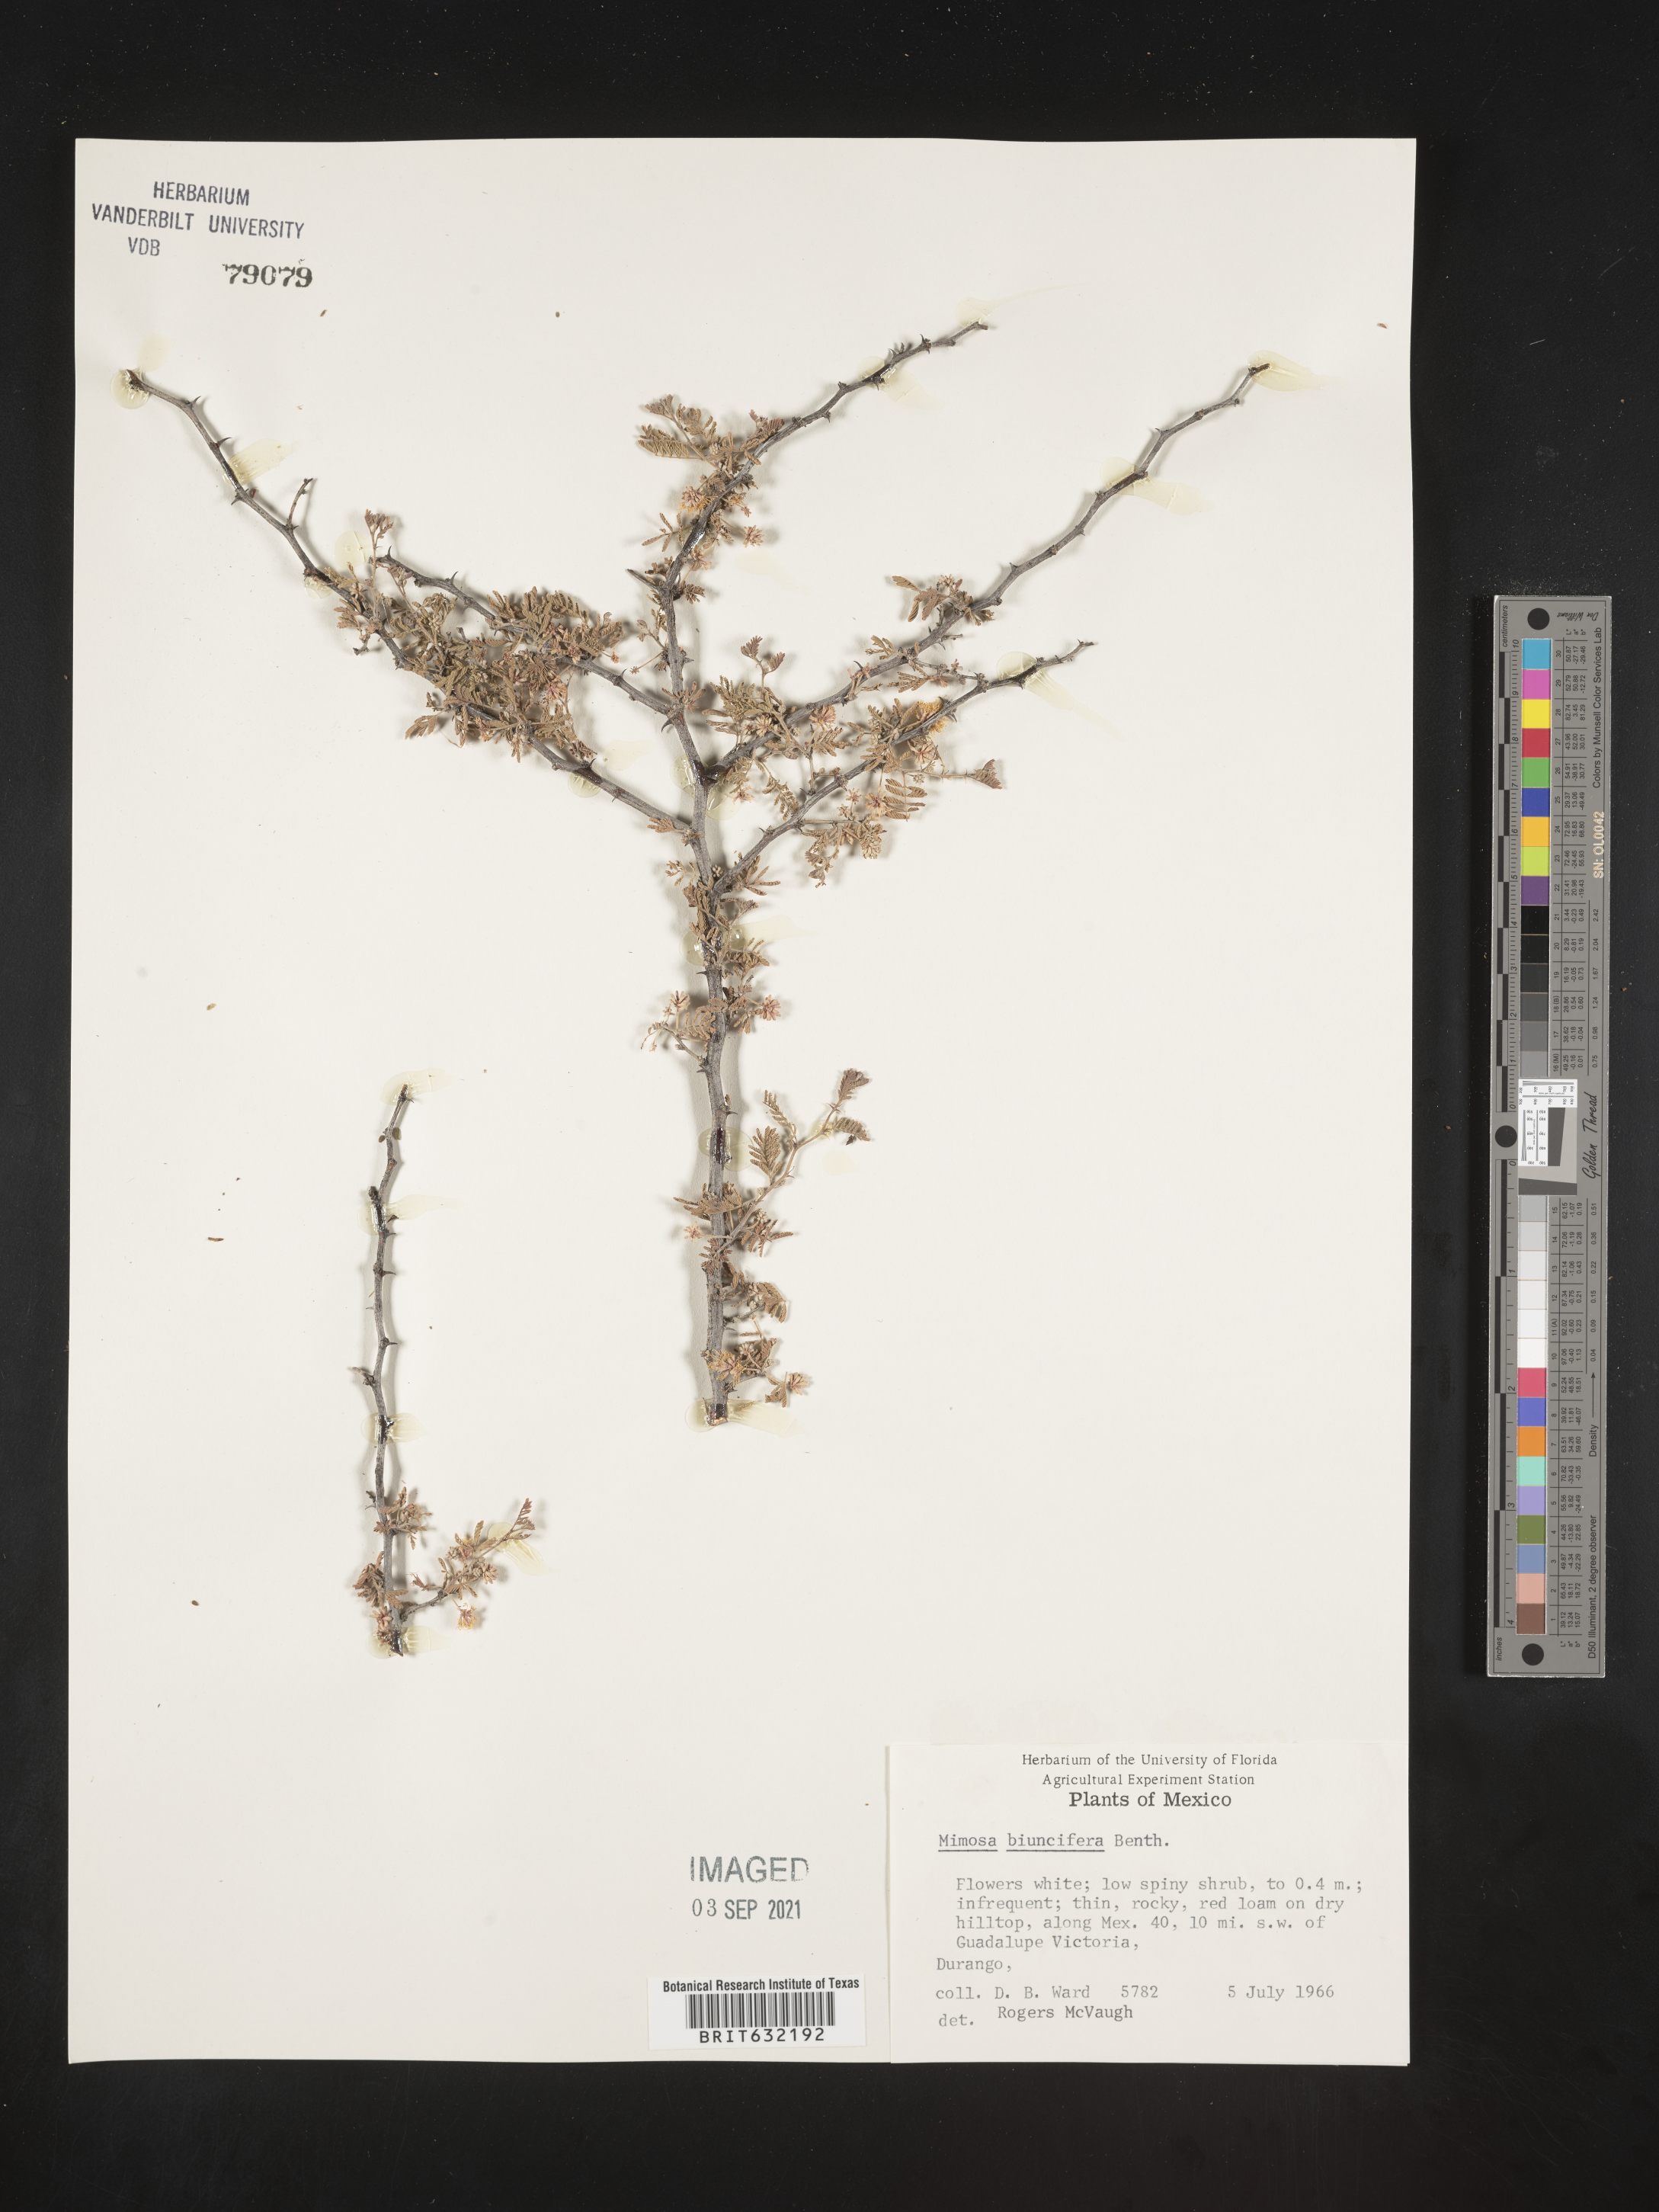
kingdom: Plantae
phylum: Tracheophyta
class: Magnoliopsida
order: Fabales
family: Fabaceae
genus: Mimosa
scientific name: Mimosa
